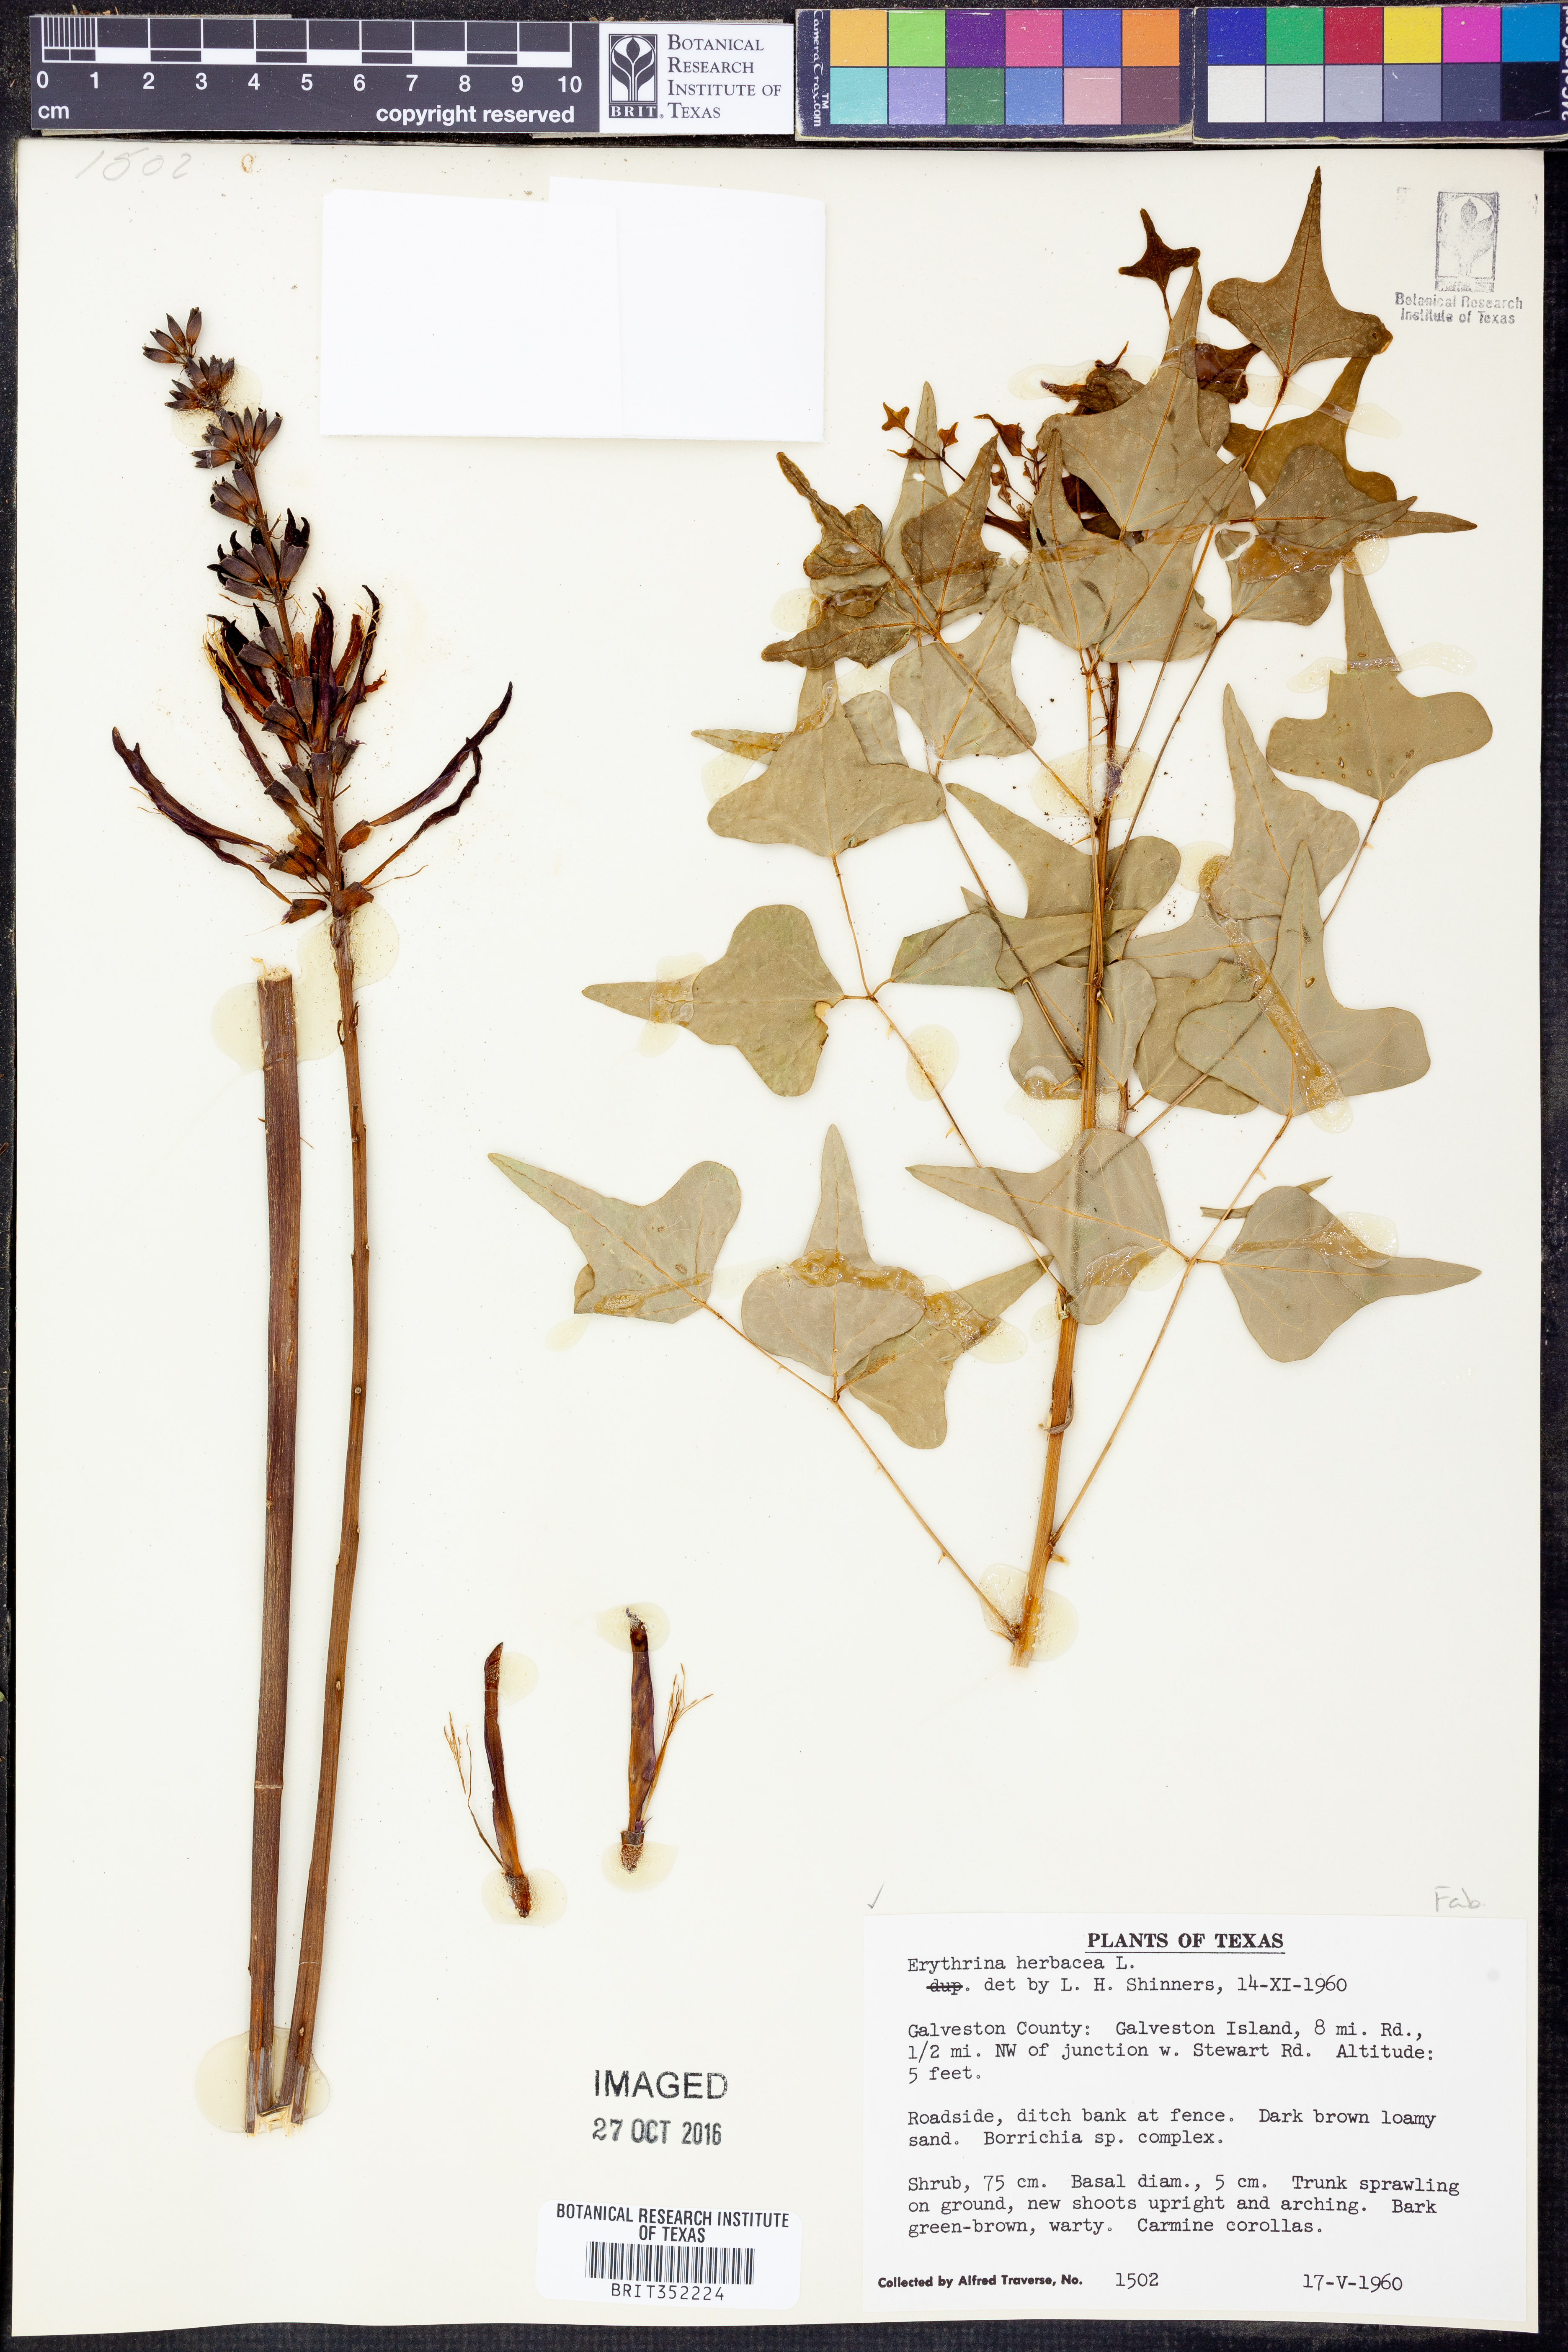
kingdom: Plantae
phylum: Tracheophyta
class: Magnoliopsida
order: Fabales
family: Fabaceae
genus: Erythrina
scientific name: Erythrina herbacea
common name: Coral-bean
